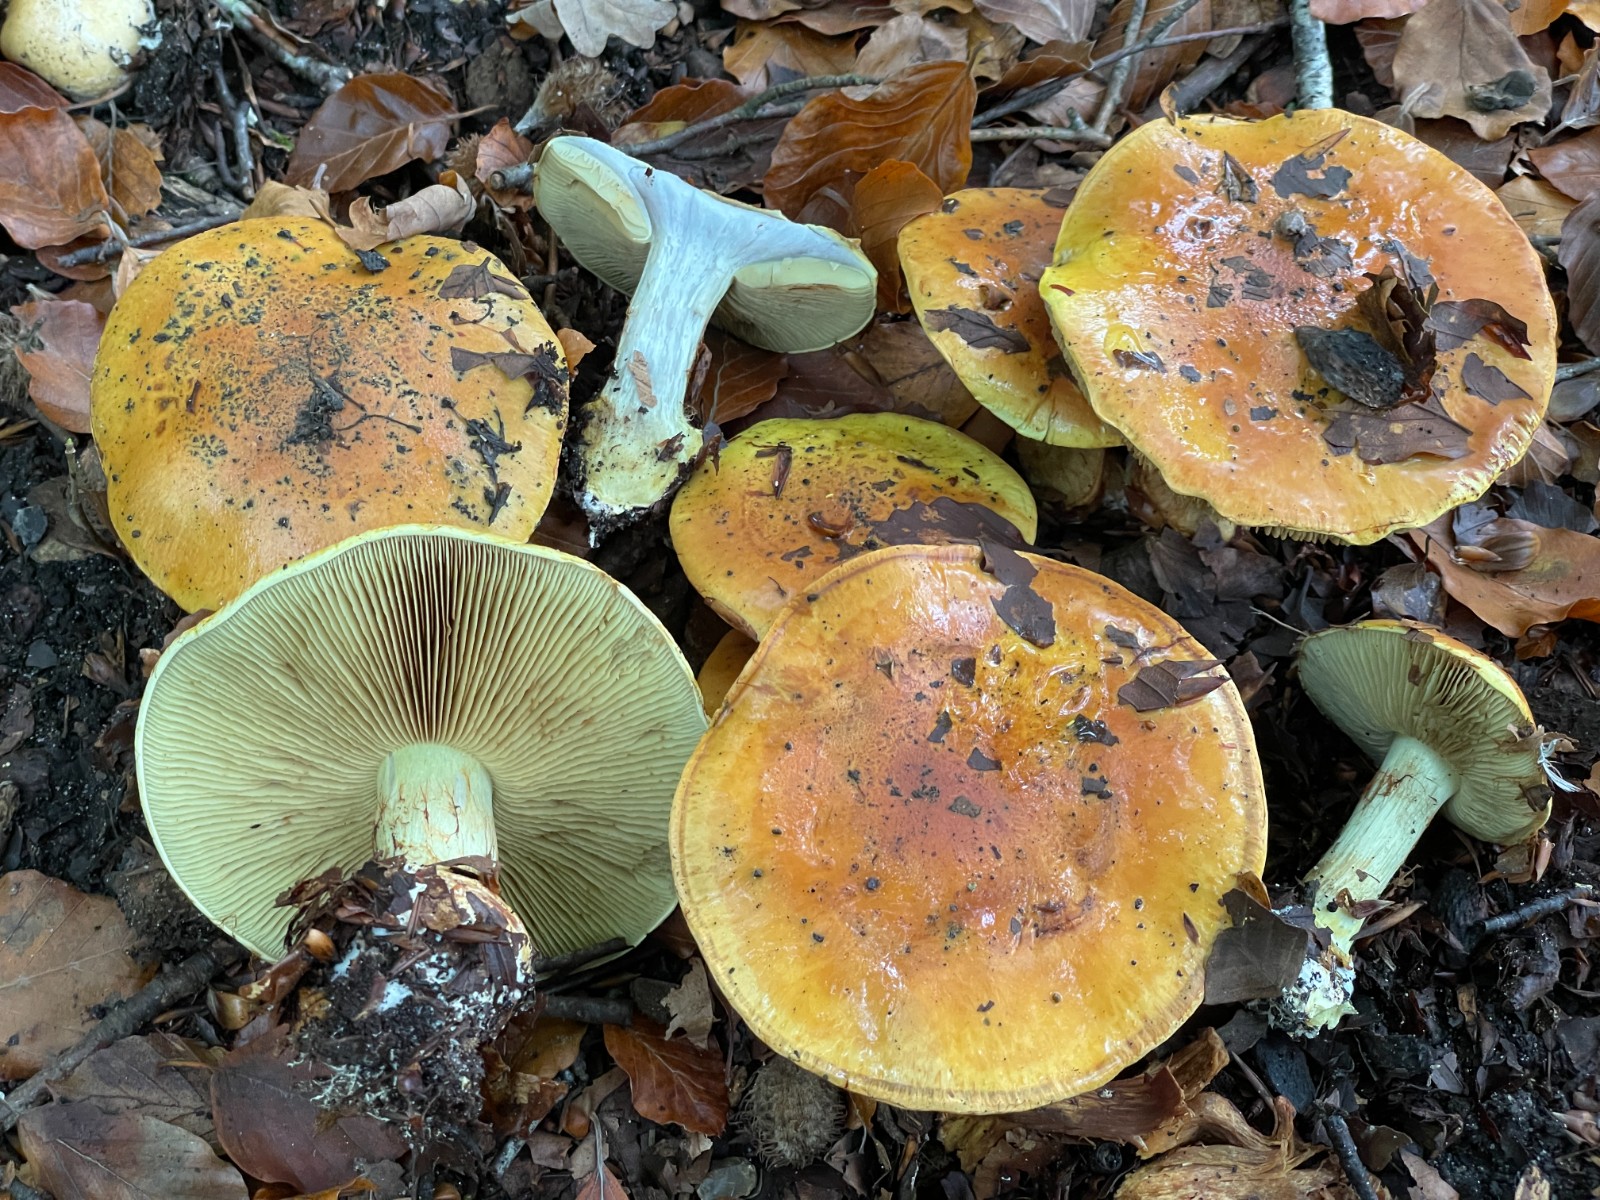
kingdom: Fungi
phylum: Basidiomycota
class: Agaricomycetes
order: Agaricales
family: Cortinariaceae
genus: Cortinarius
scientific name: Cortinarius bergeronii
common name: prægtig slørhat
